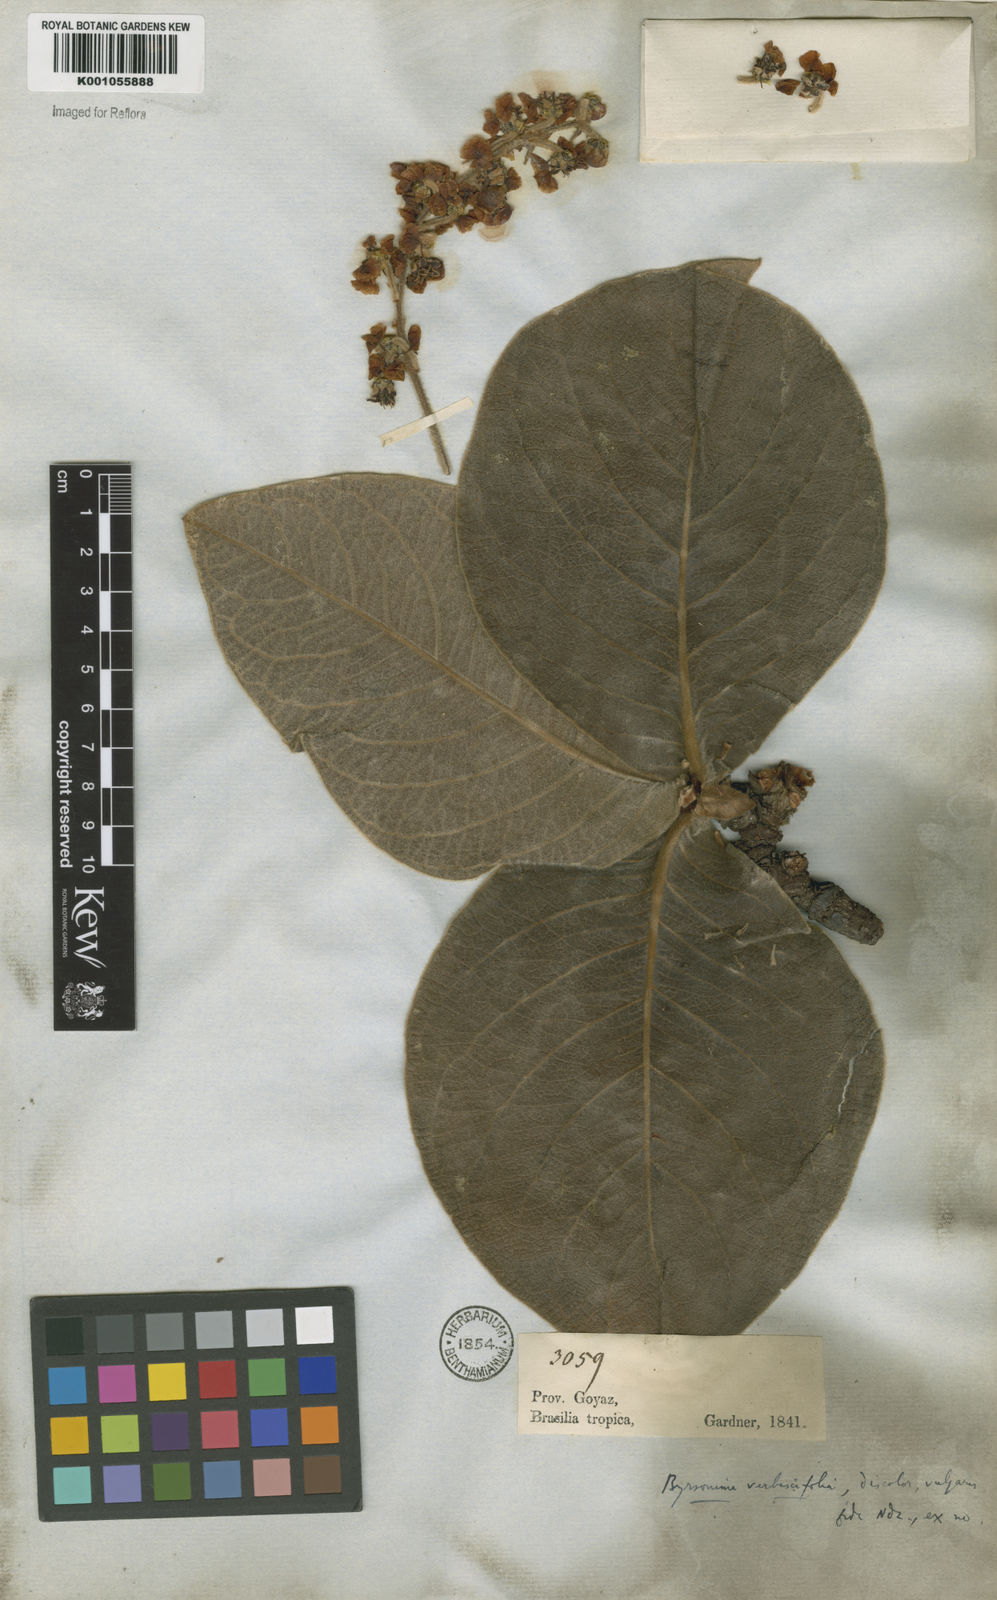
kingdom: Plantae
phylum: Tracheophyta
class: Magnoliopsida
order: Malpighiales
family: Malpighiaceae
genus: Byrsonima
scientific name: Byrsonima verbascifolia
